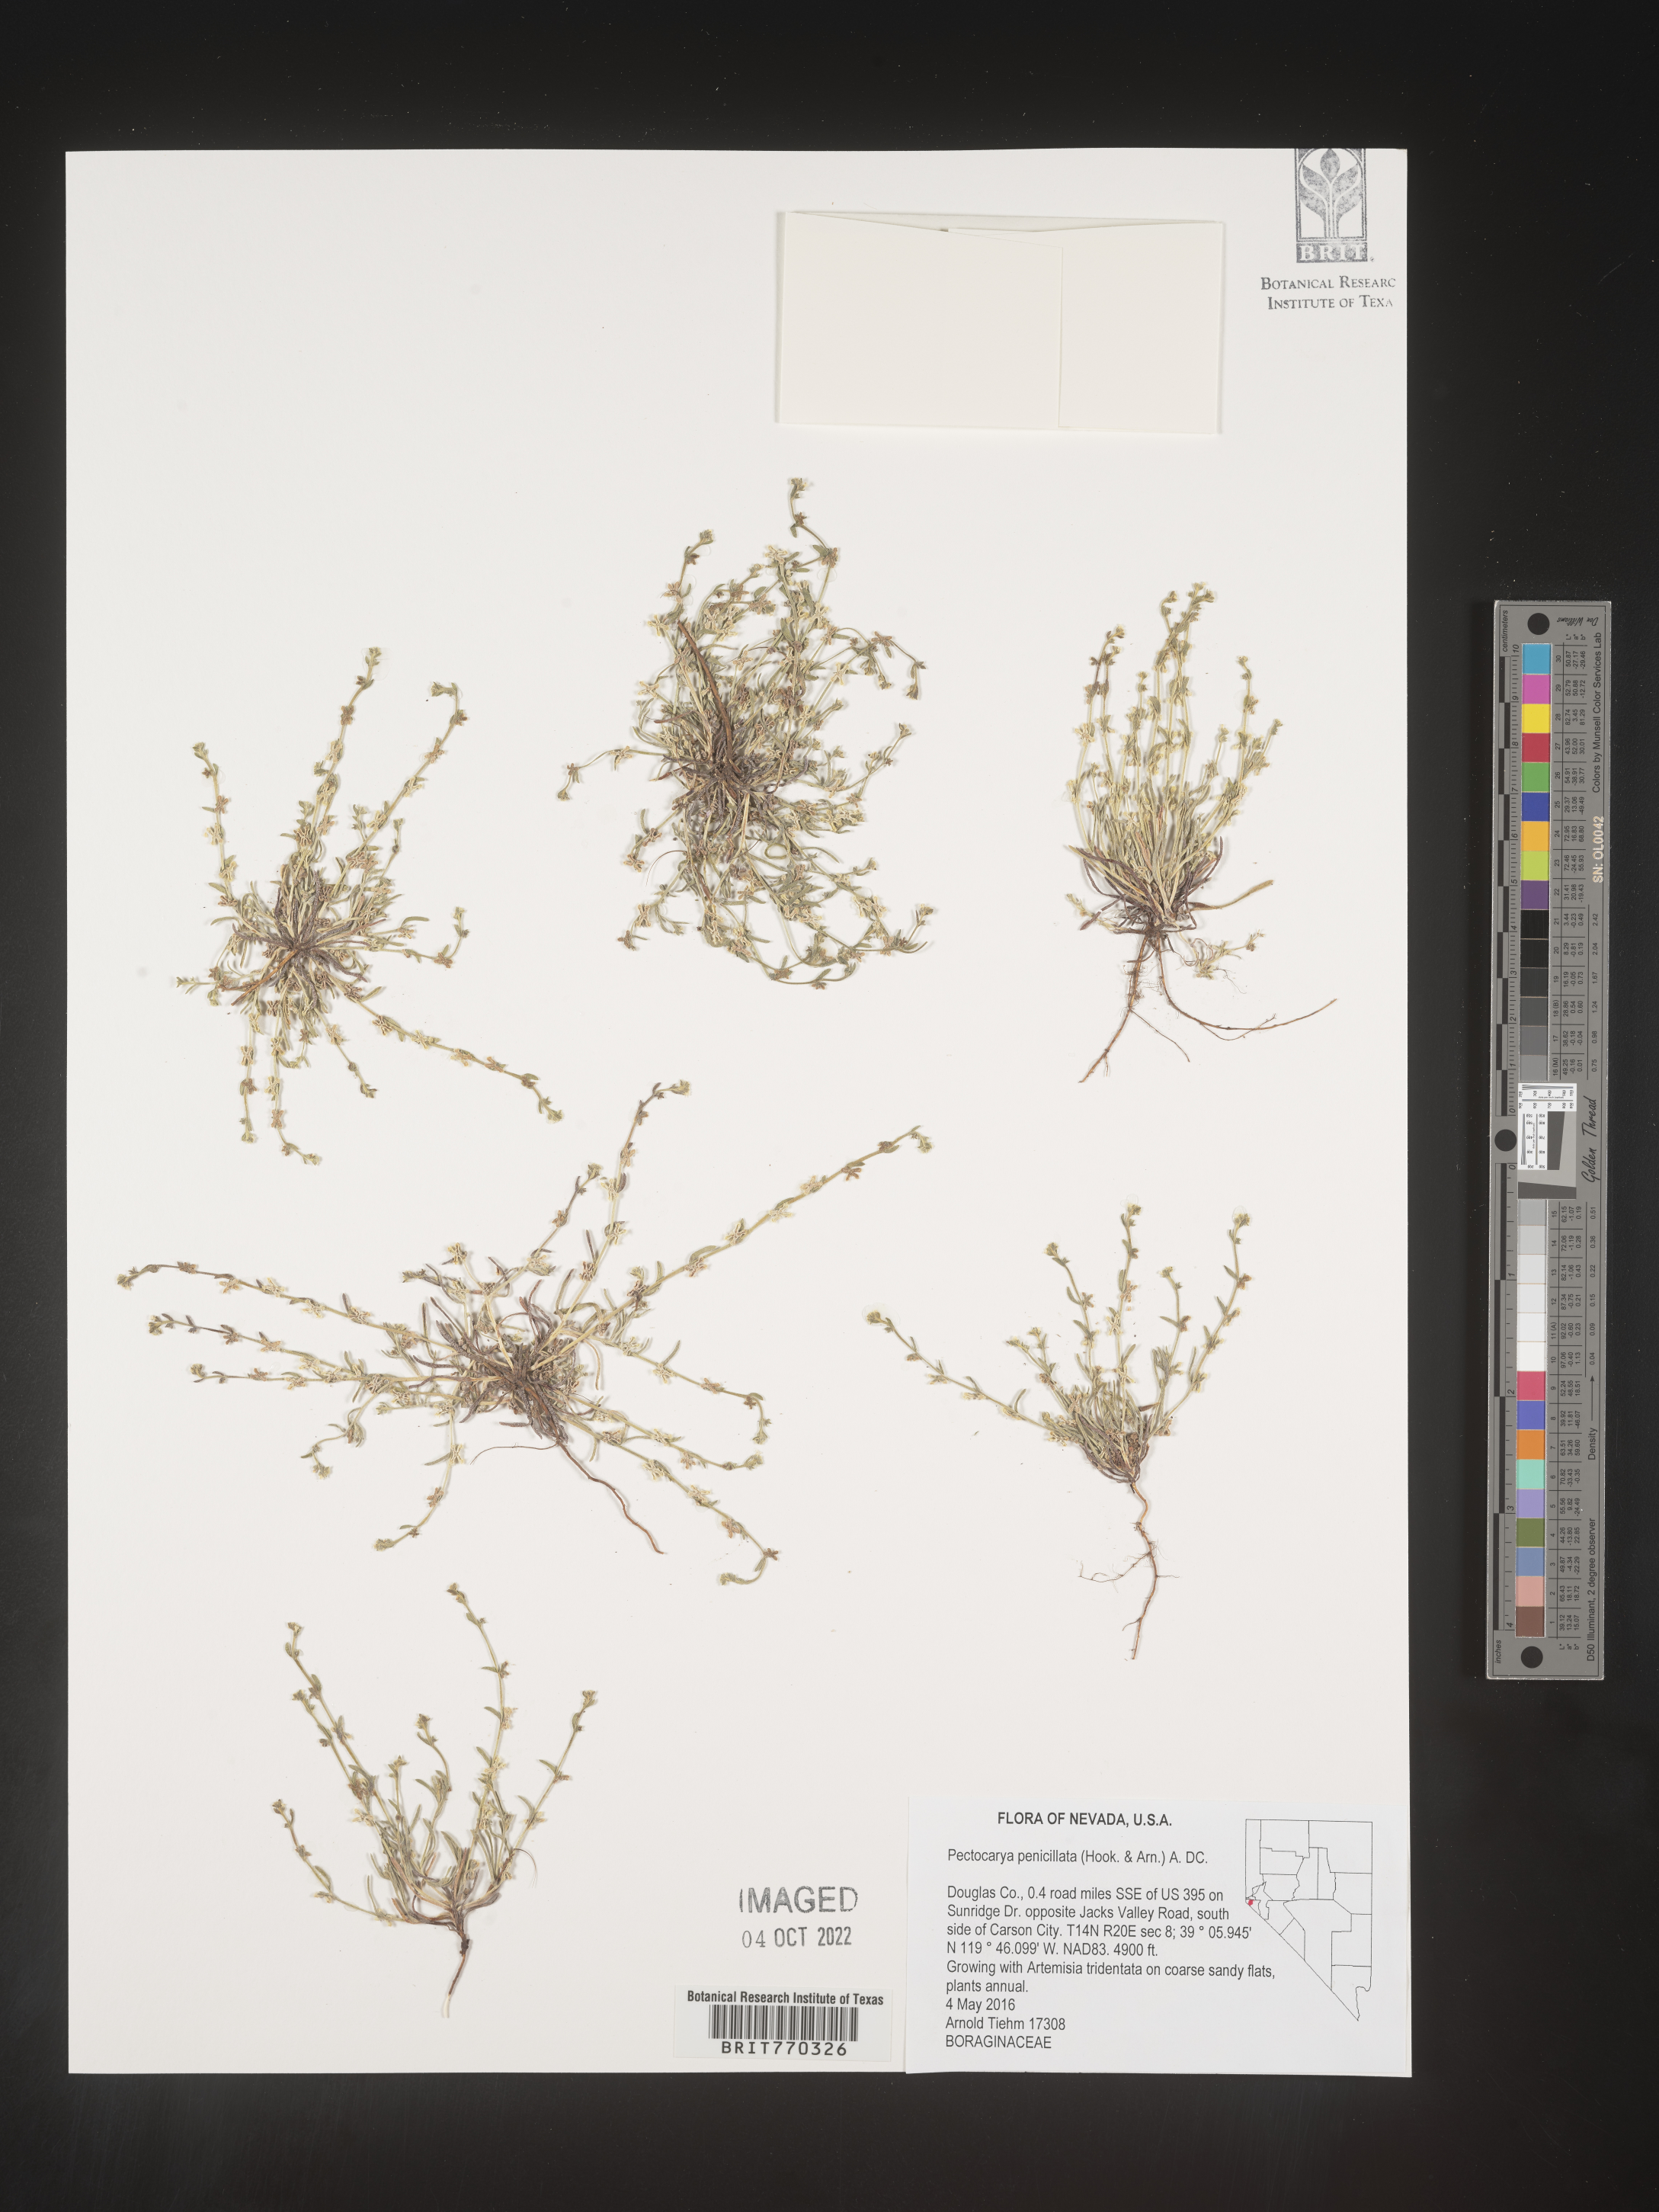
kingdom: Plantae
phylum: Tracheophyta
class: Magnoliopsida
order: Boraginales
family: Boraginaceae
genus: Pectocarya
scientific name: Pectocarya
